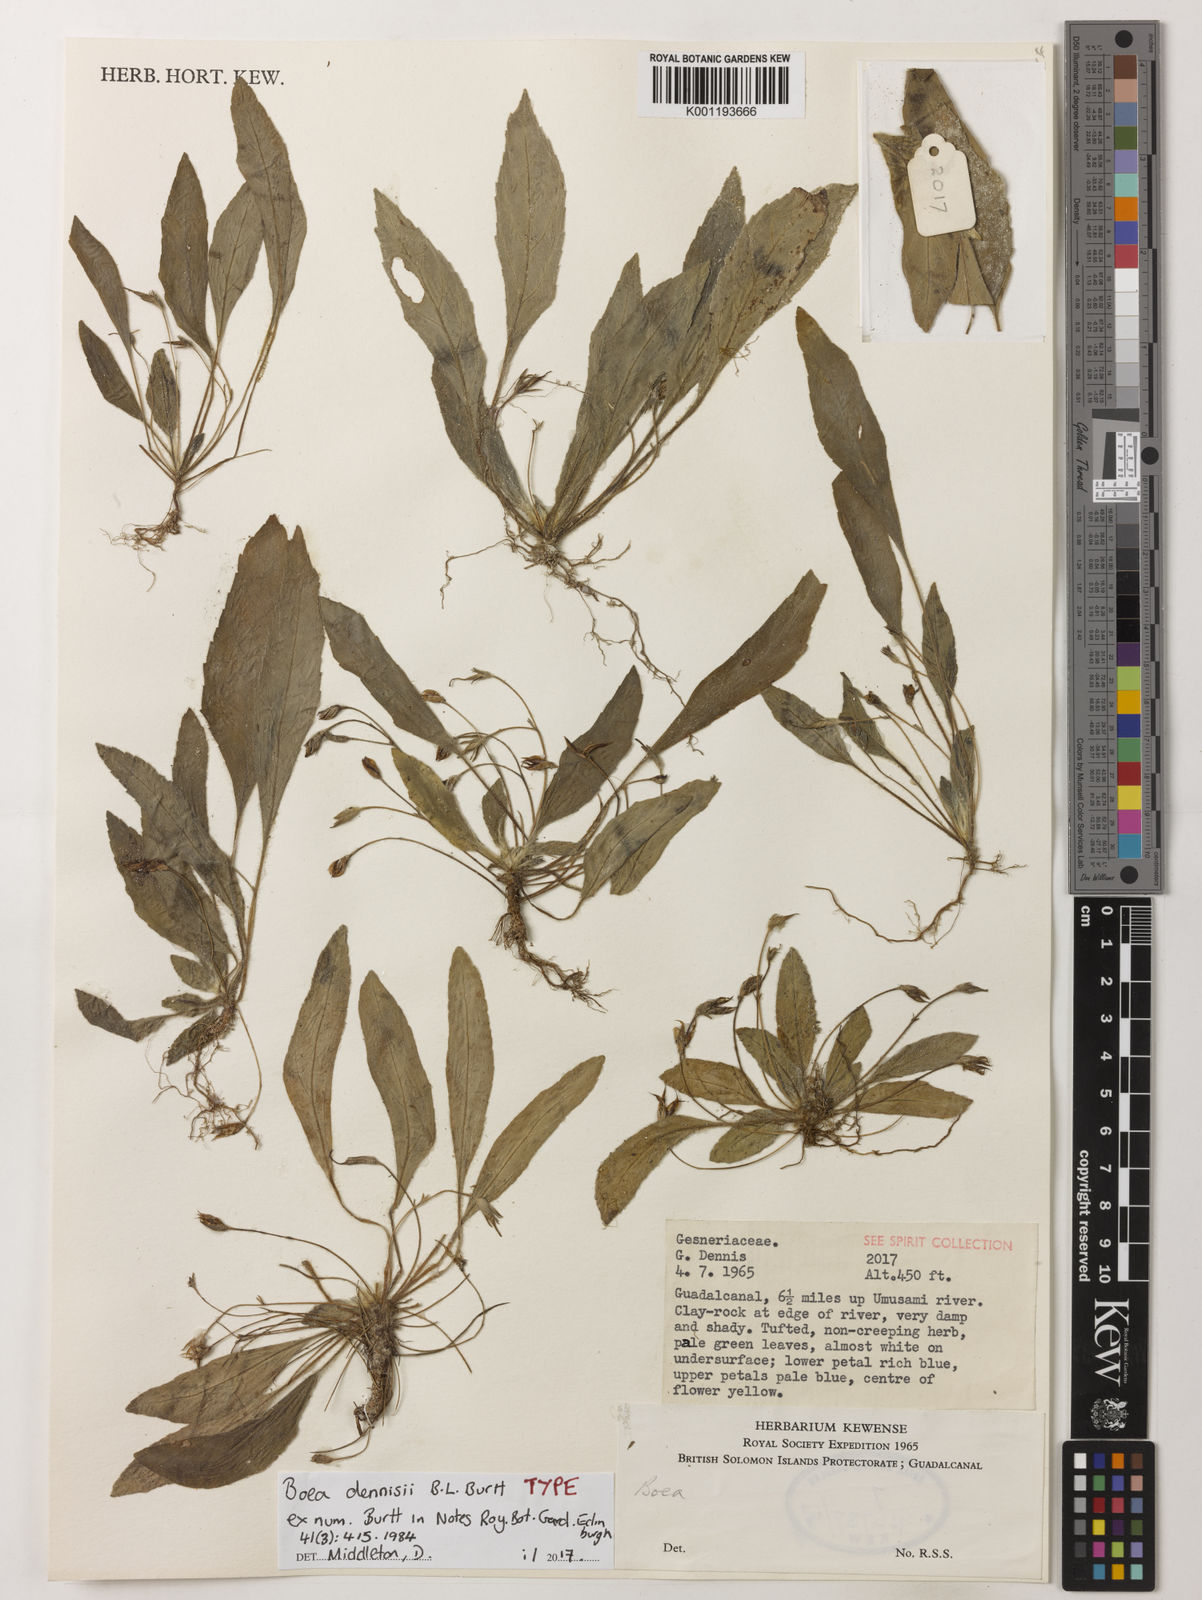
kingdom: Plantae
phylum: Tracheophyta
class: Magnoliopsida
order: Lamiales
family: Gesneriaceae
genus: Boea
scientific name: Boea dennisii
